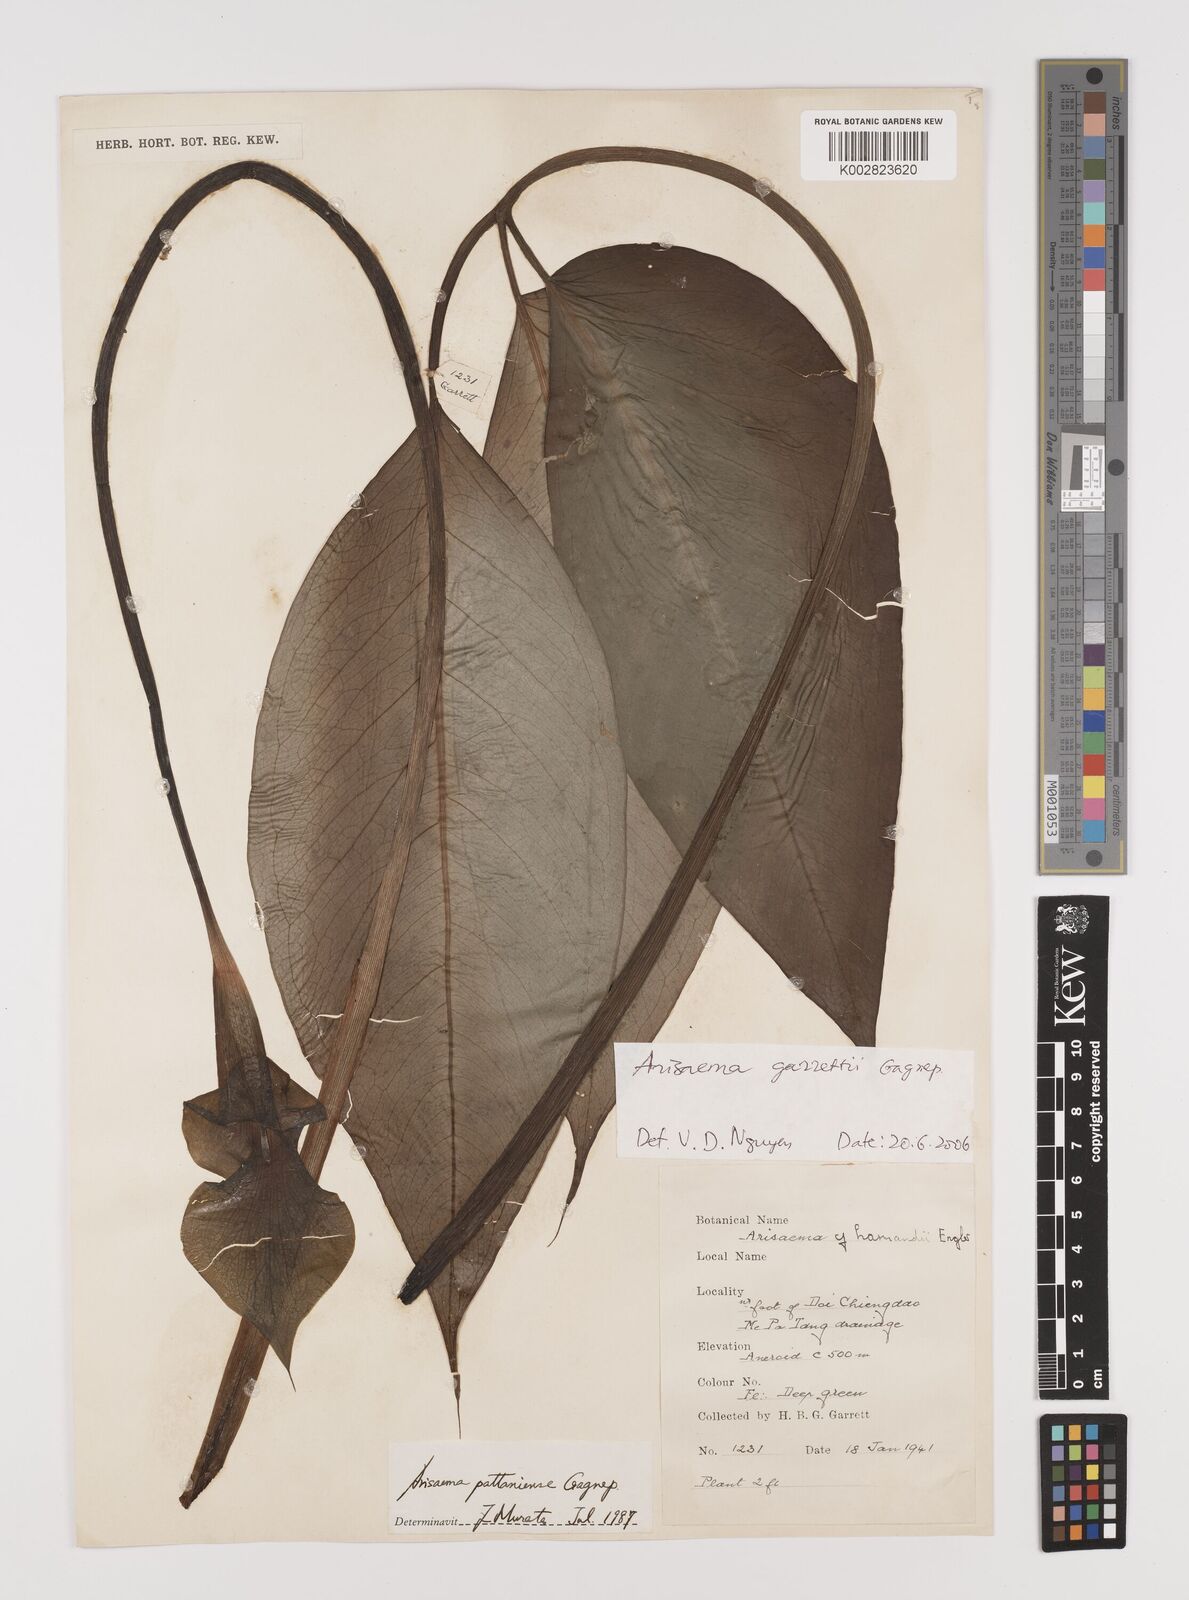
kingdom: Plantae
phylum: Tracheophyta
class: Liliopsida
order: Alismatales
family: Araceae
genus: Arisaema
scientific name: Arisaema garrettii
